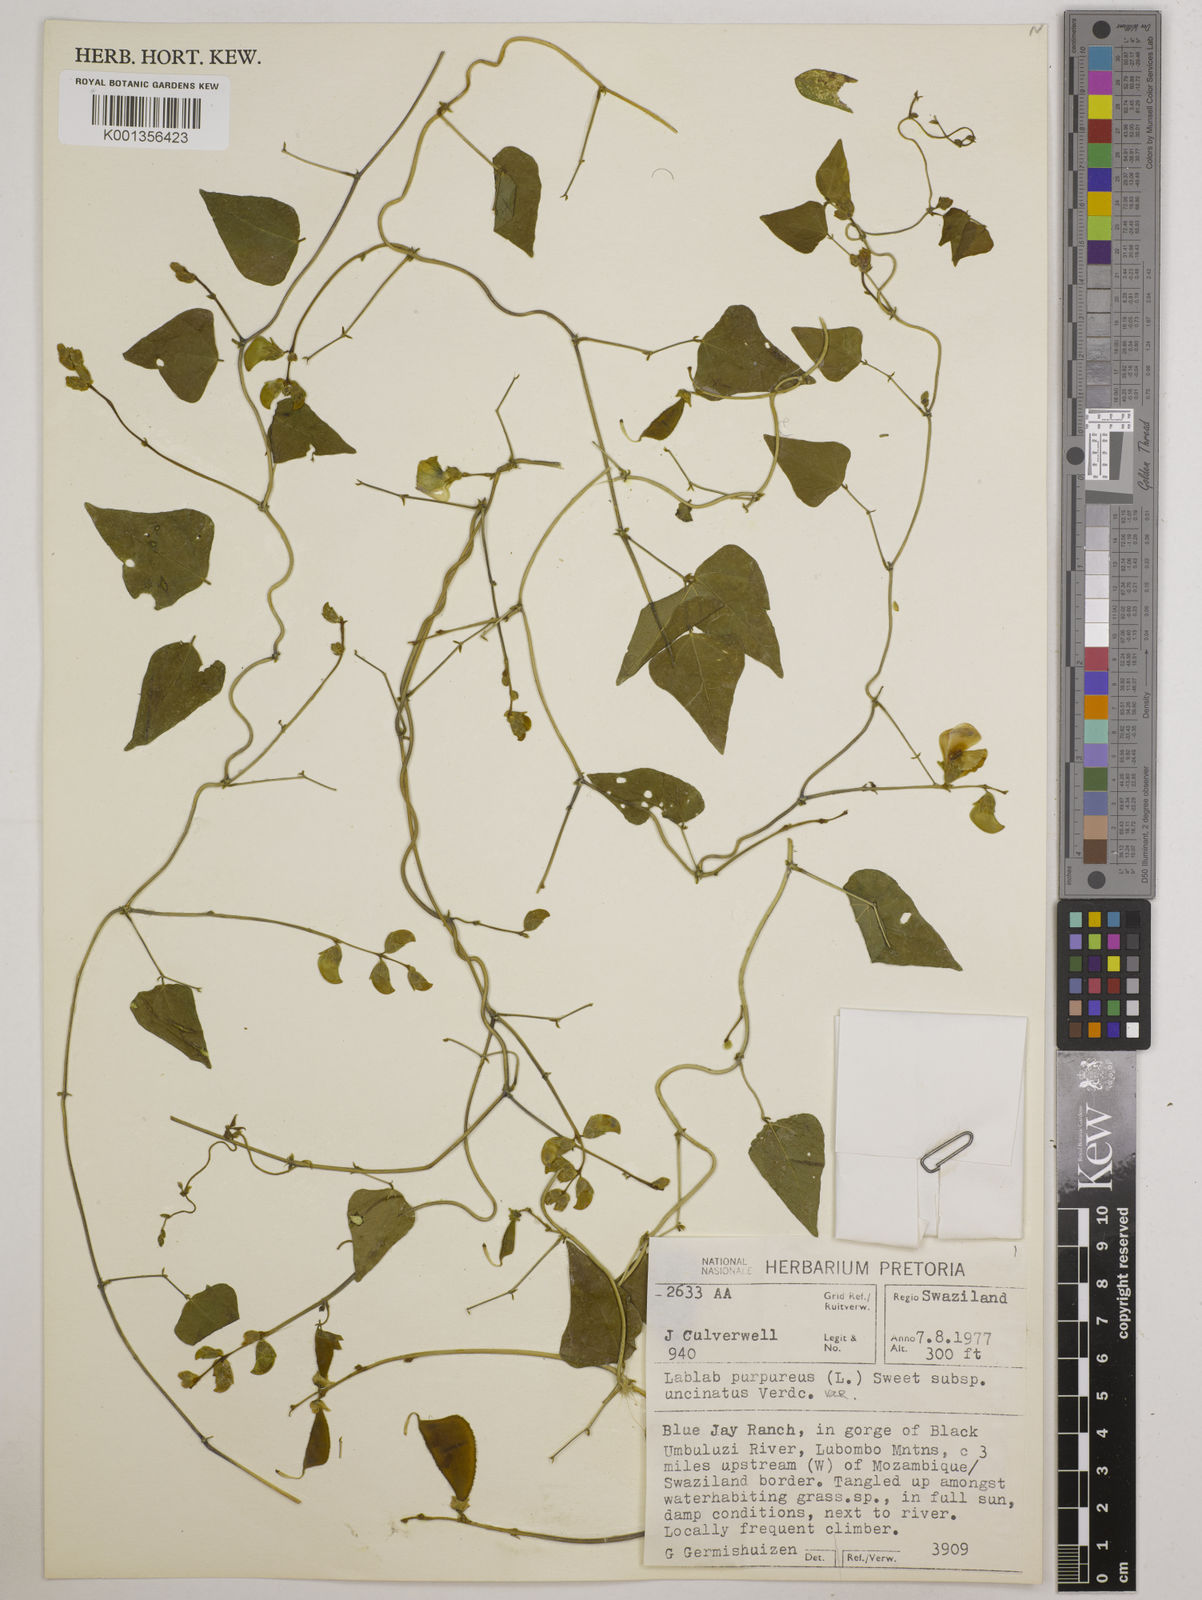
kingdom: Plantae
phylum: Tracheophyta
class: Magnoliopsida
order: Fabales
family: Fabaceae
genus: Lablab
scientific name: Lablab purpureus
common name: Lablab-bean
